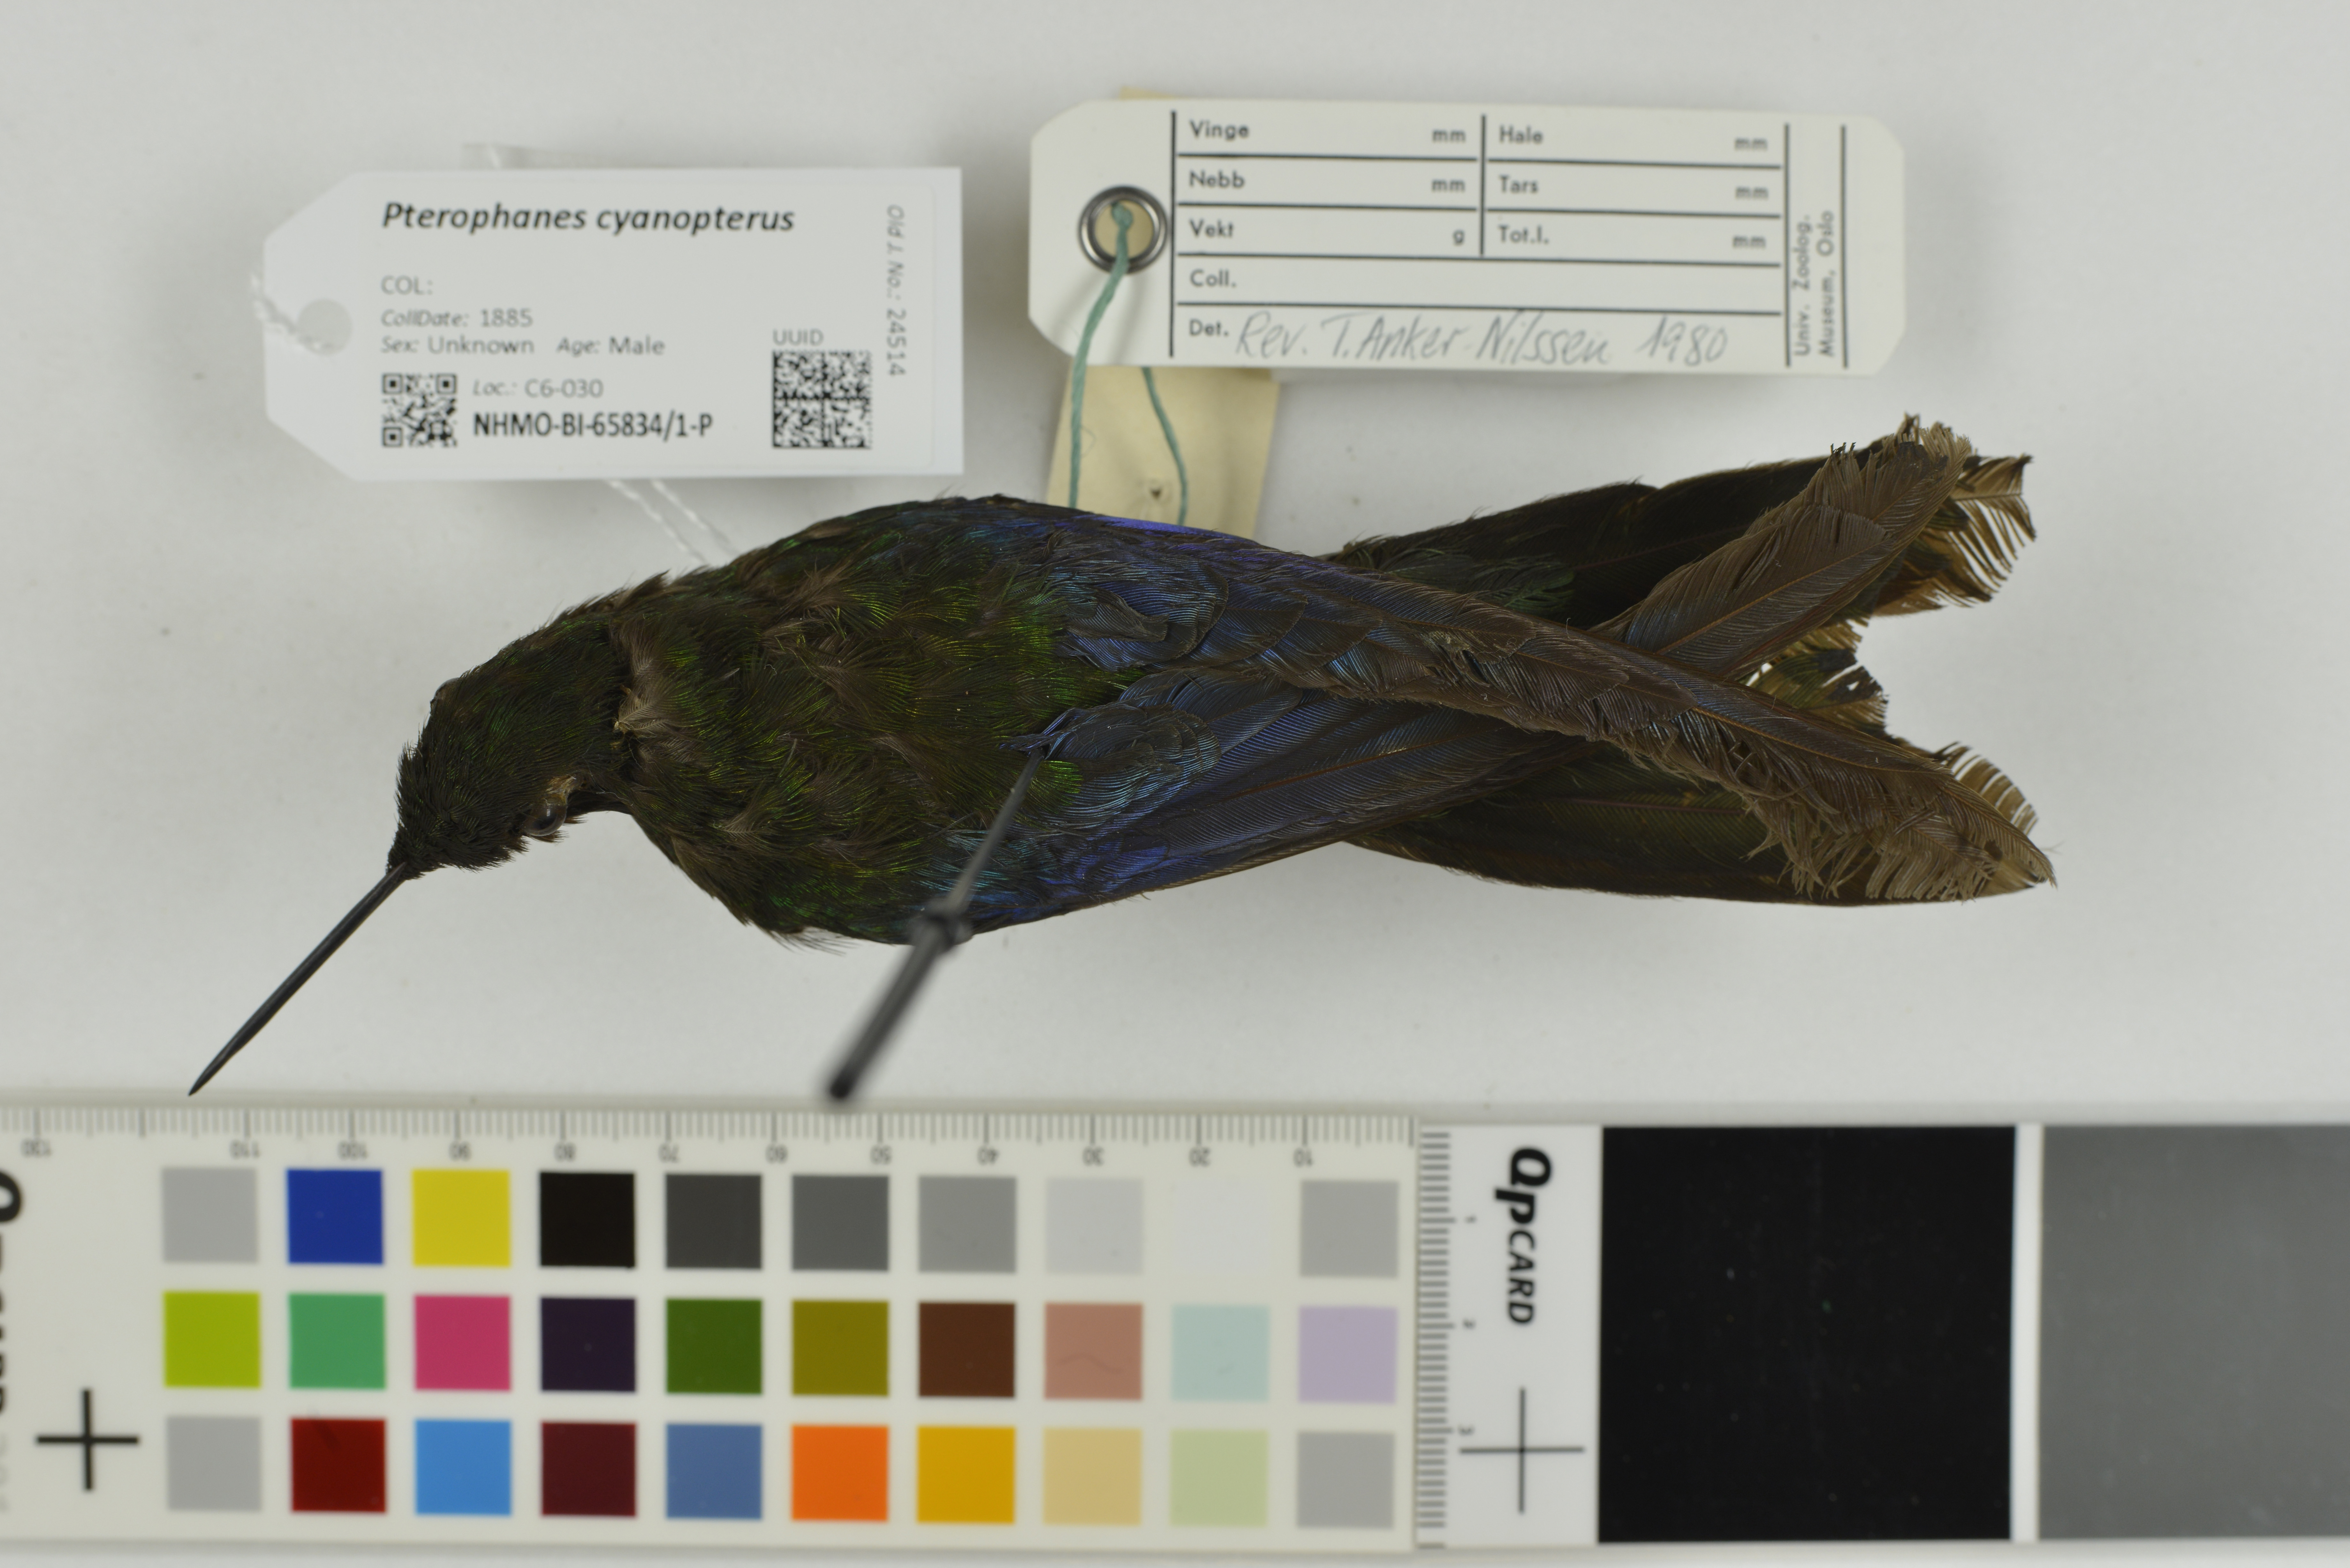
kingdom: Animalia
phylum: Chordata
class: Aves
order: Apodiformes
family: Trochilidae
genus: Pterophanes
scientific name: Pterophanes cyanopterus
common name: Great sapphirewing
